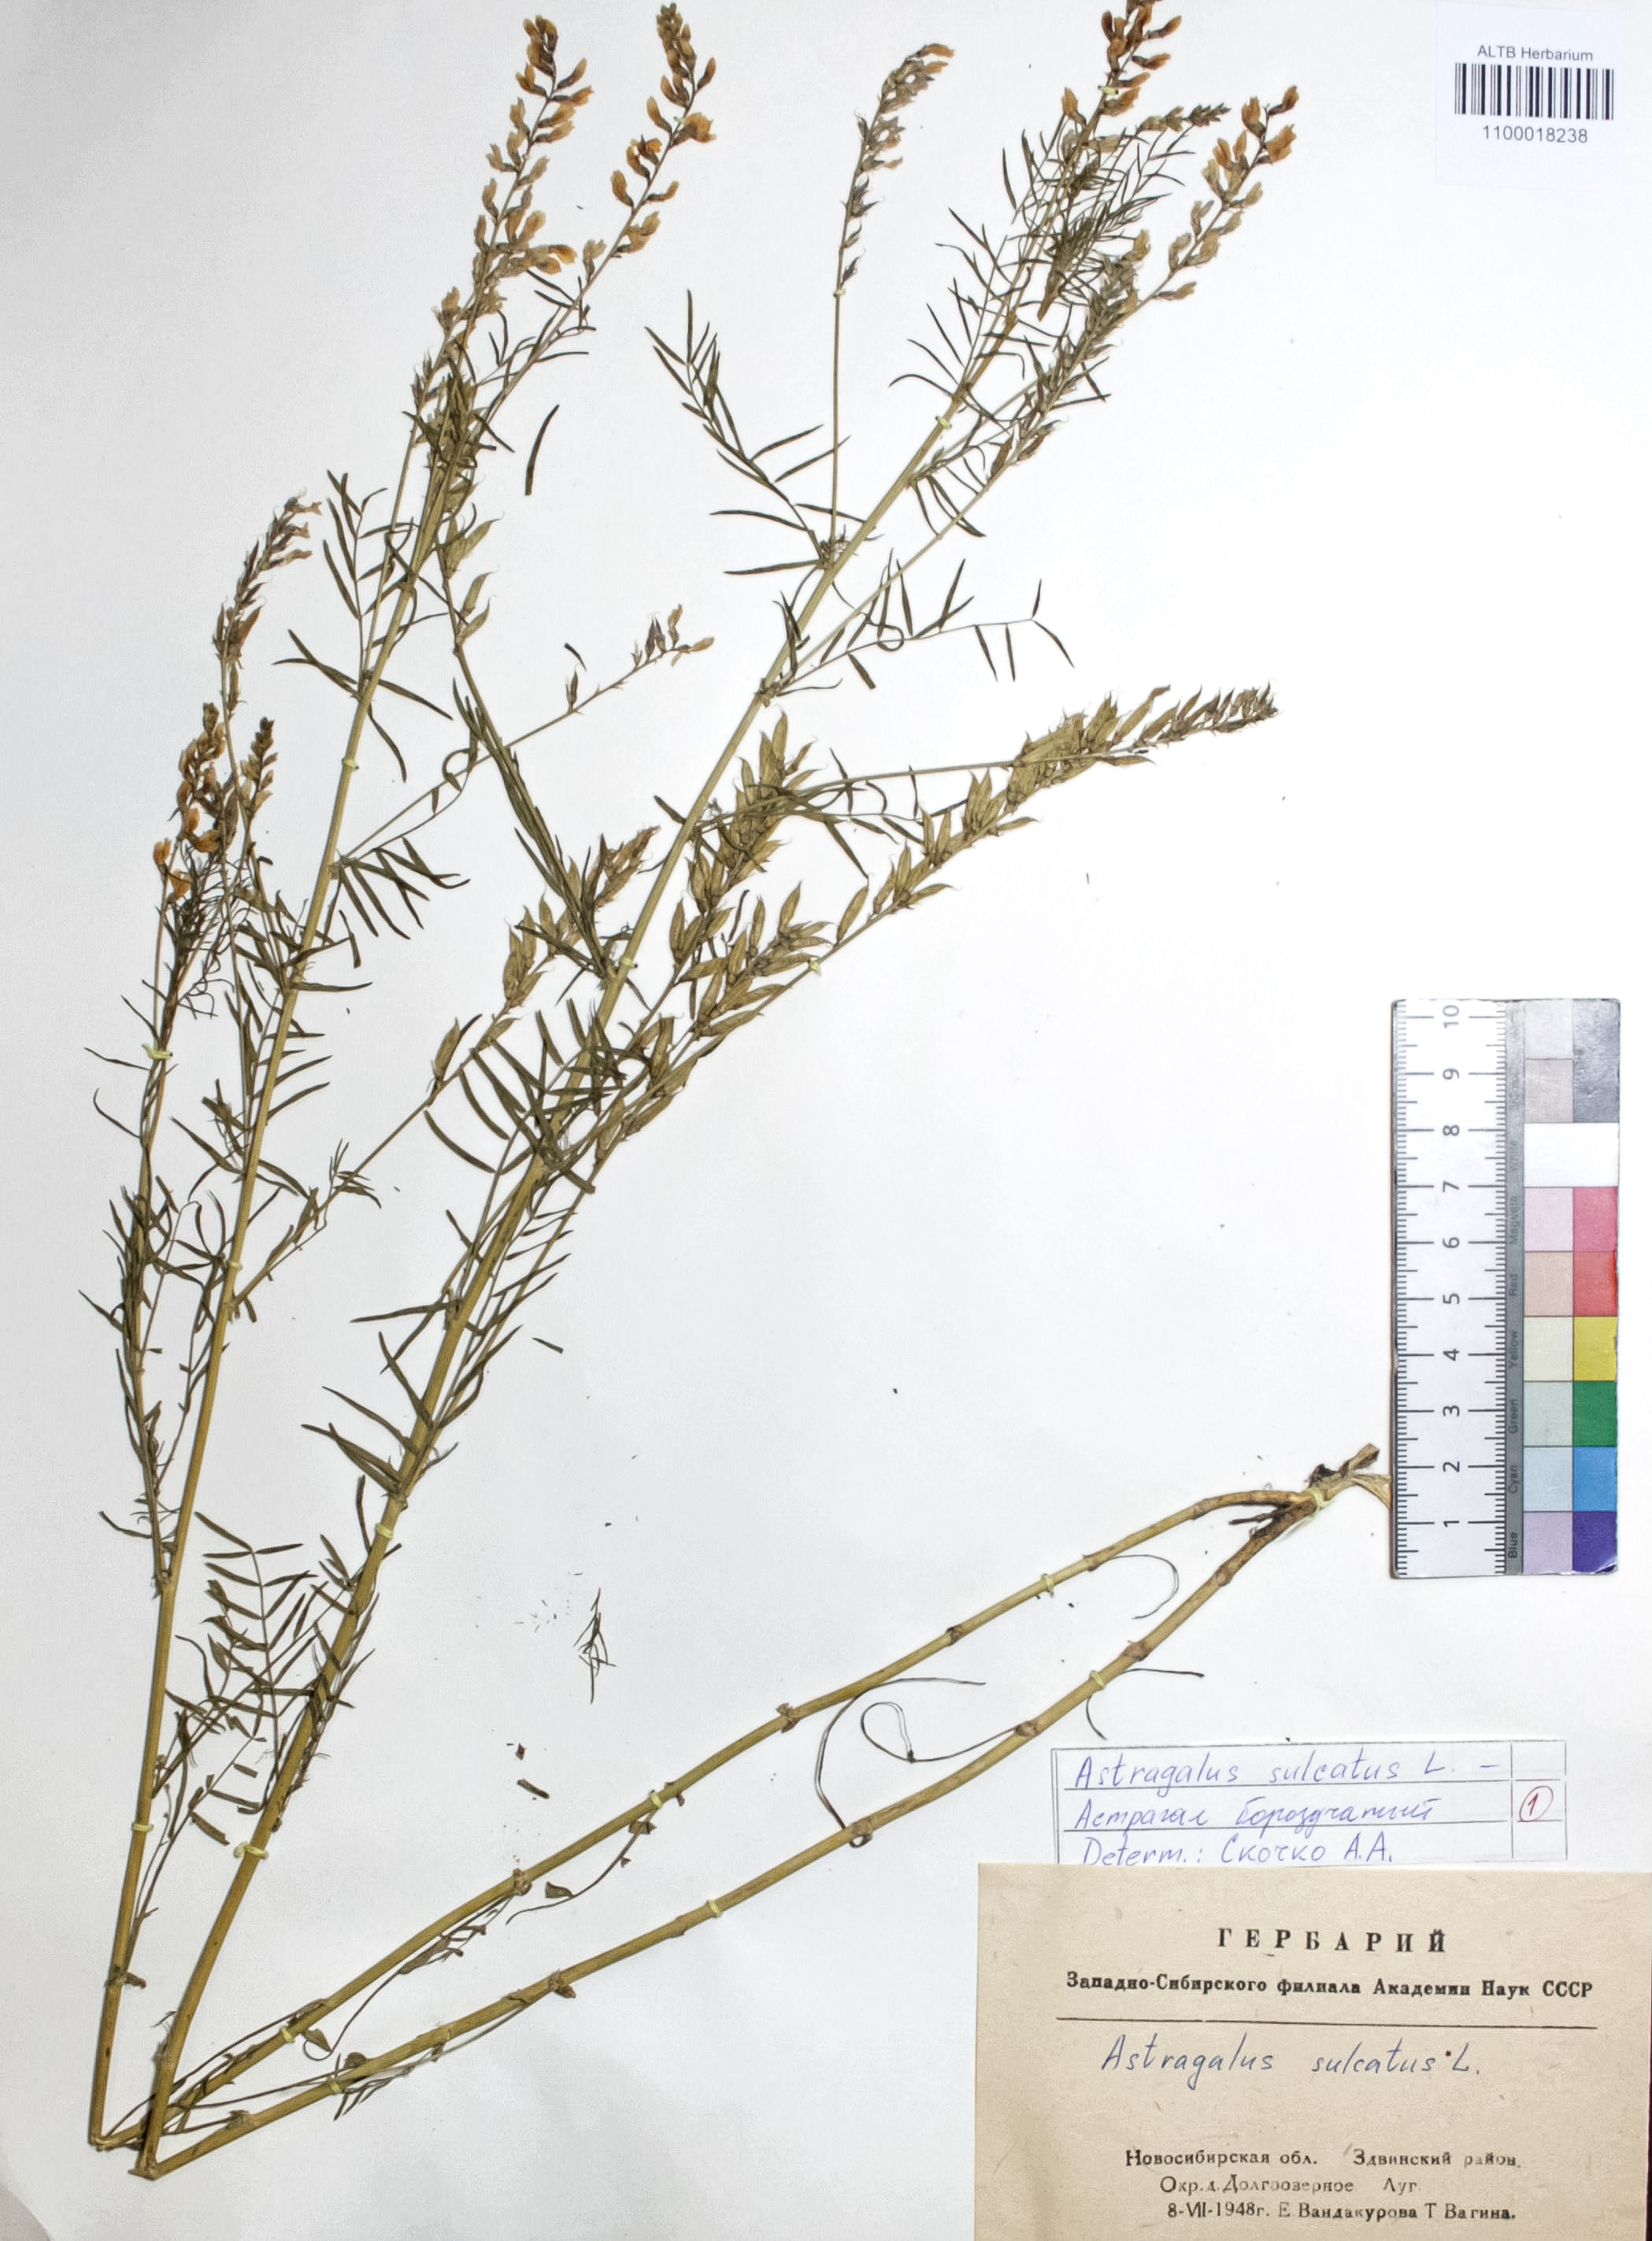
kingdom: Plantae
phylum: Tracheophyta
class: Magnoliopsida
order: Fabales
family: Fabaceae
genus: Astragalus
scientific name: Astragalus sulcatus
